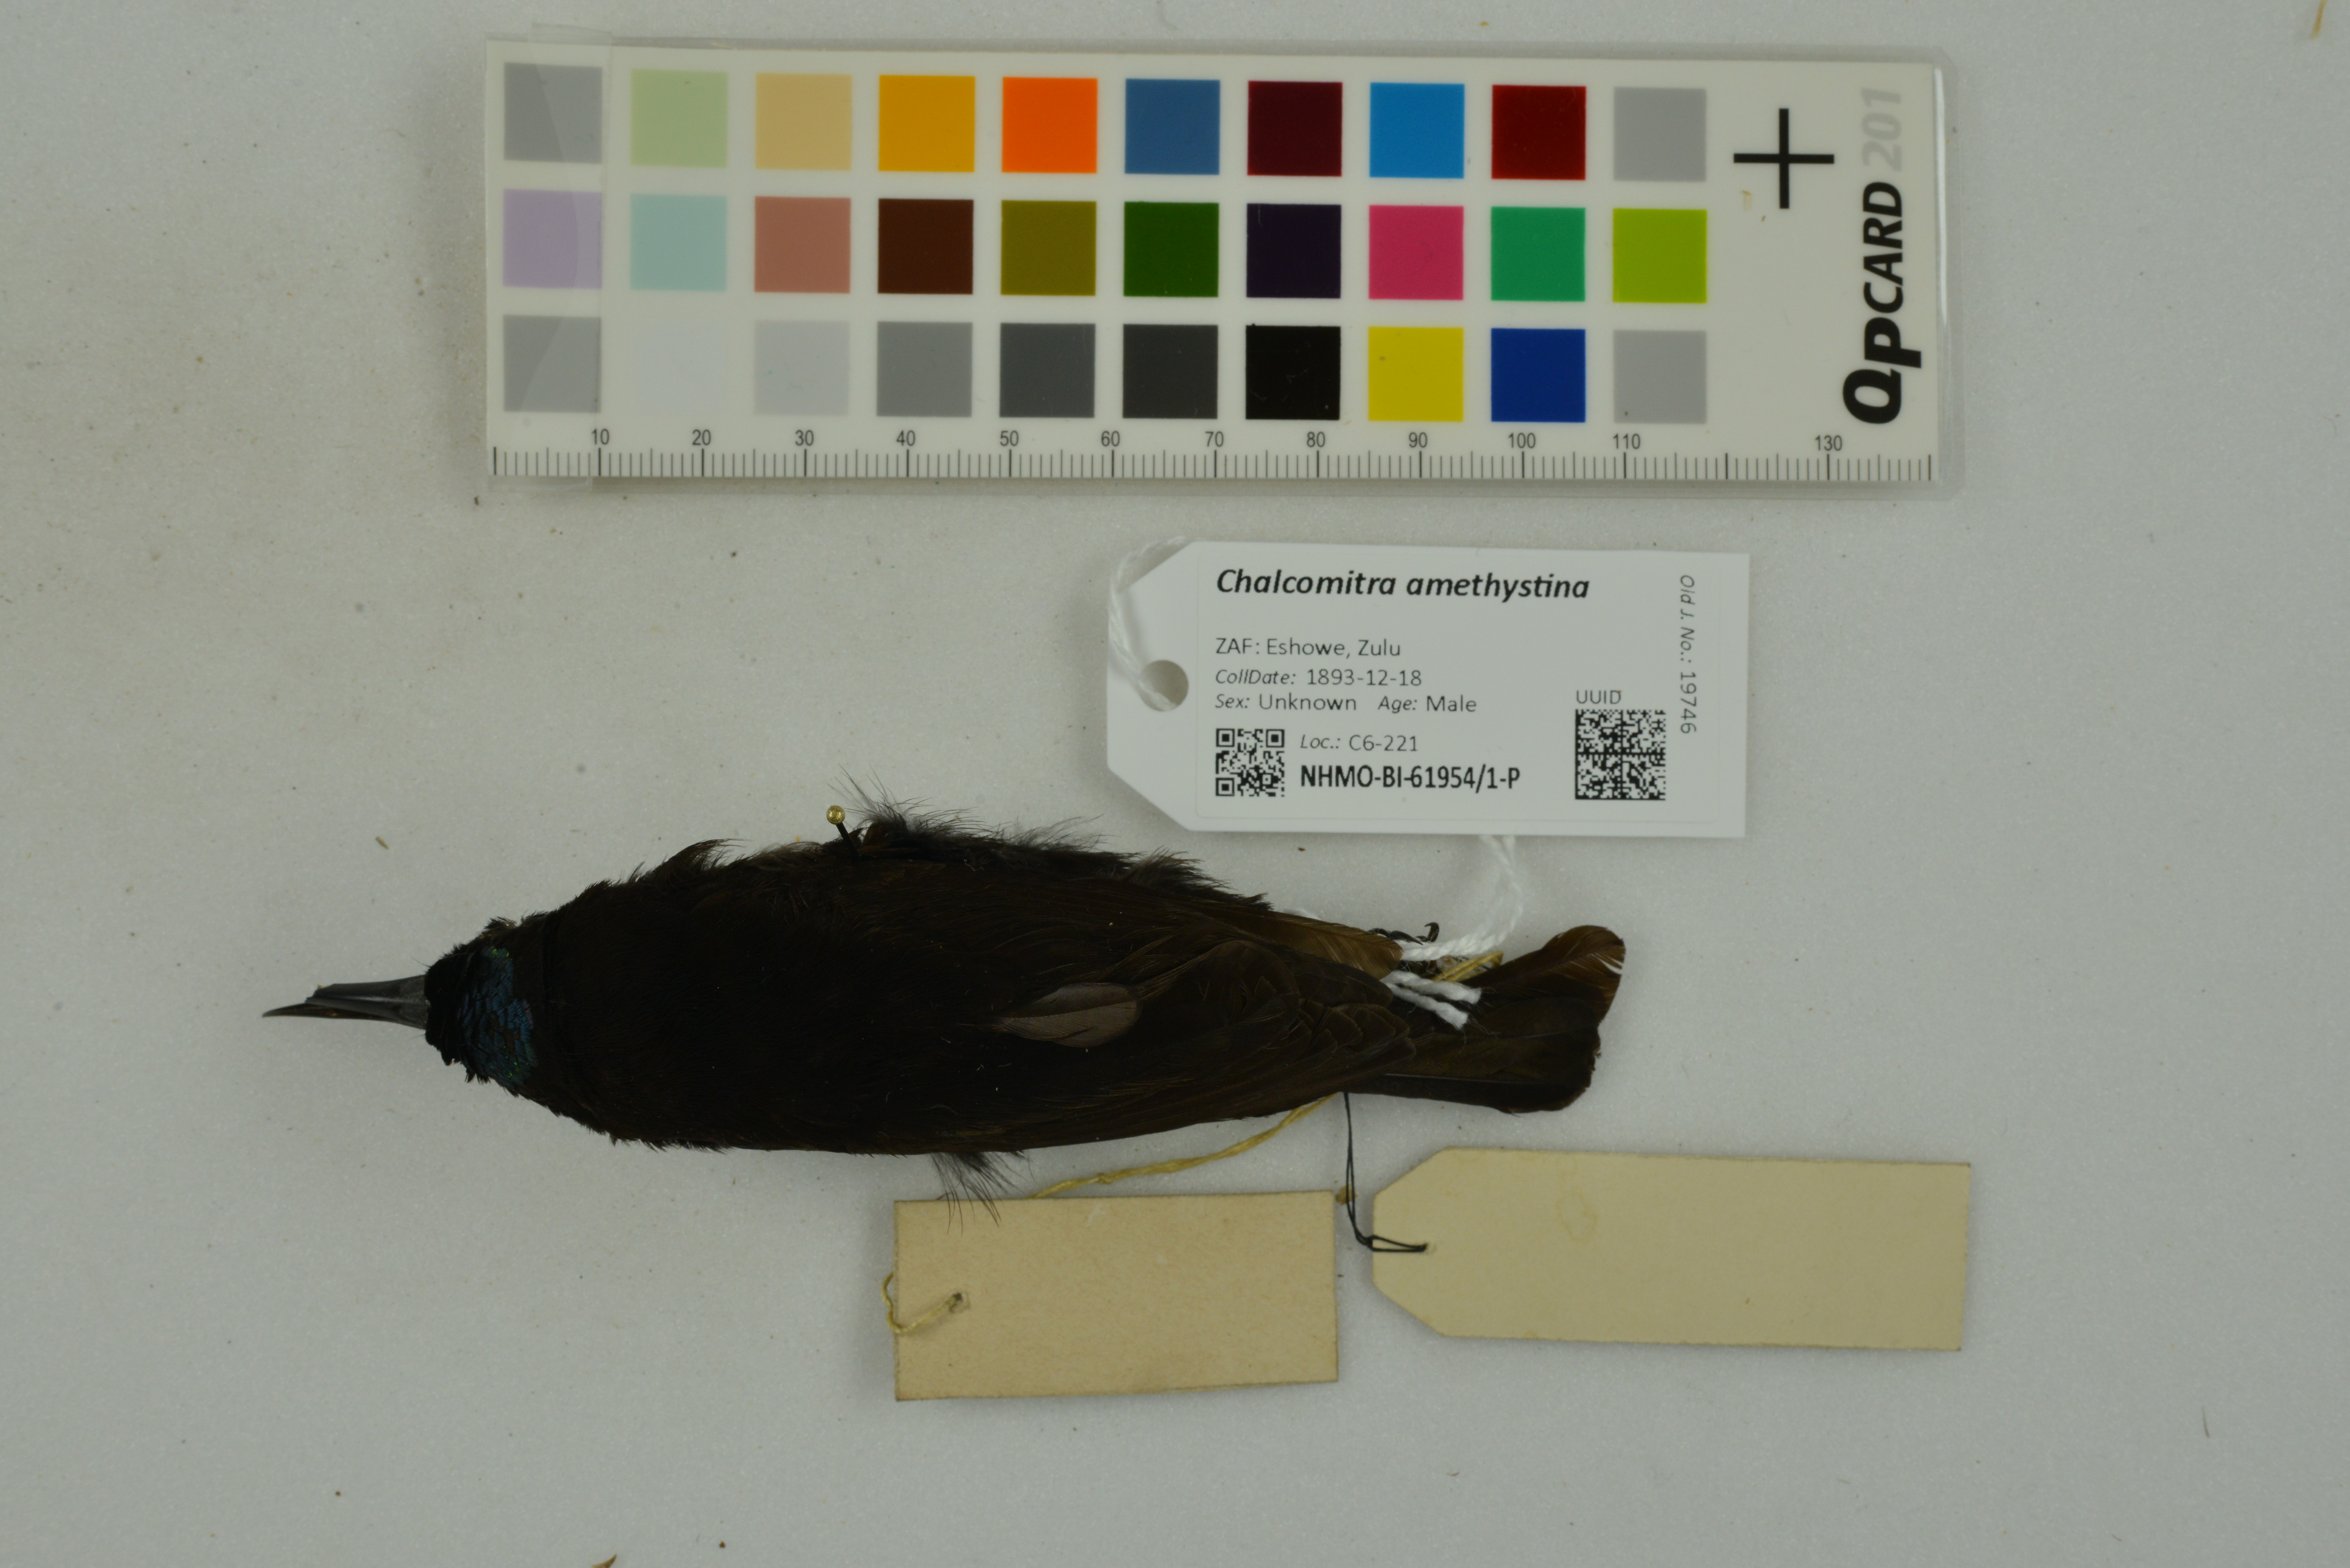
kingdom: Animalia
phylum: Chordata
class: Aves
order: Passeriformes
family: Nectariniidae
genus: Chalcomitra
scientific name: Chalcomitra amethystina
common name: Amethyst sunbird
